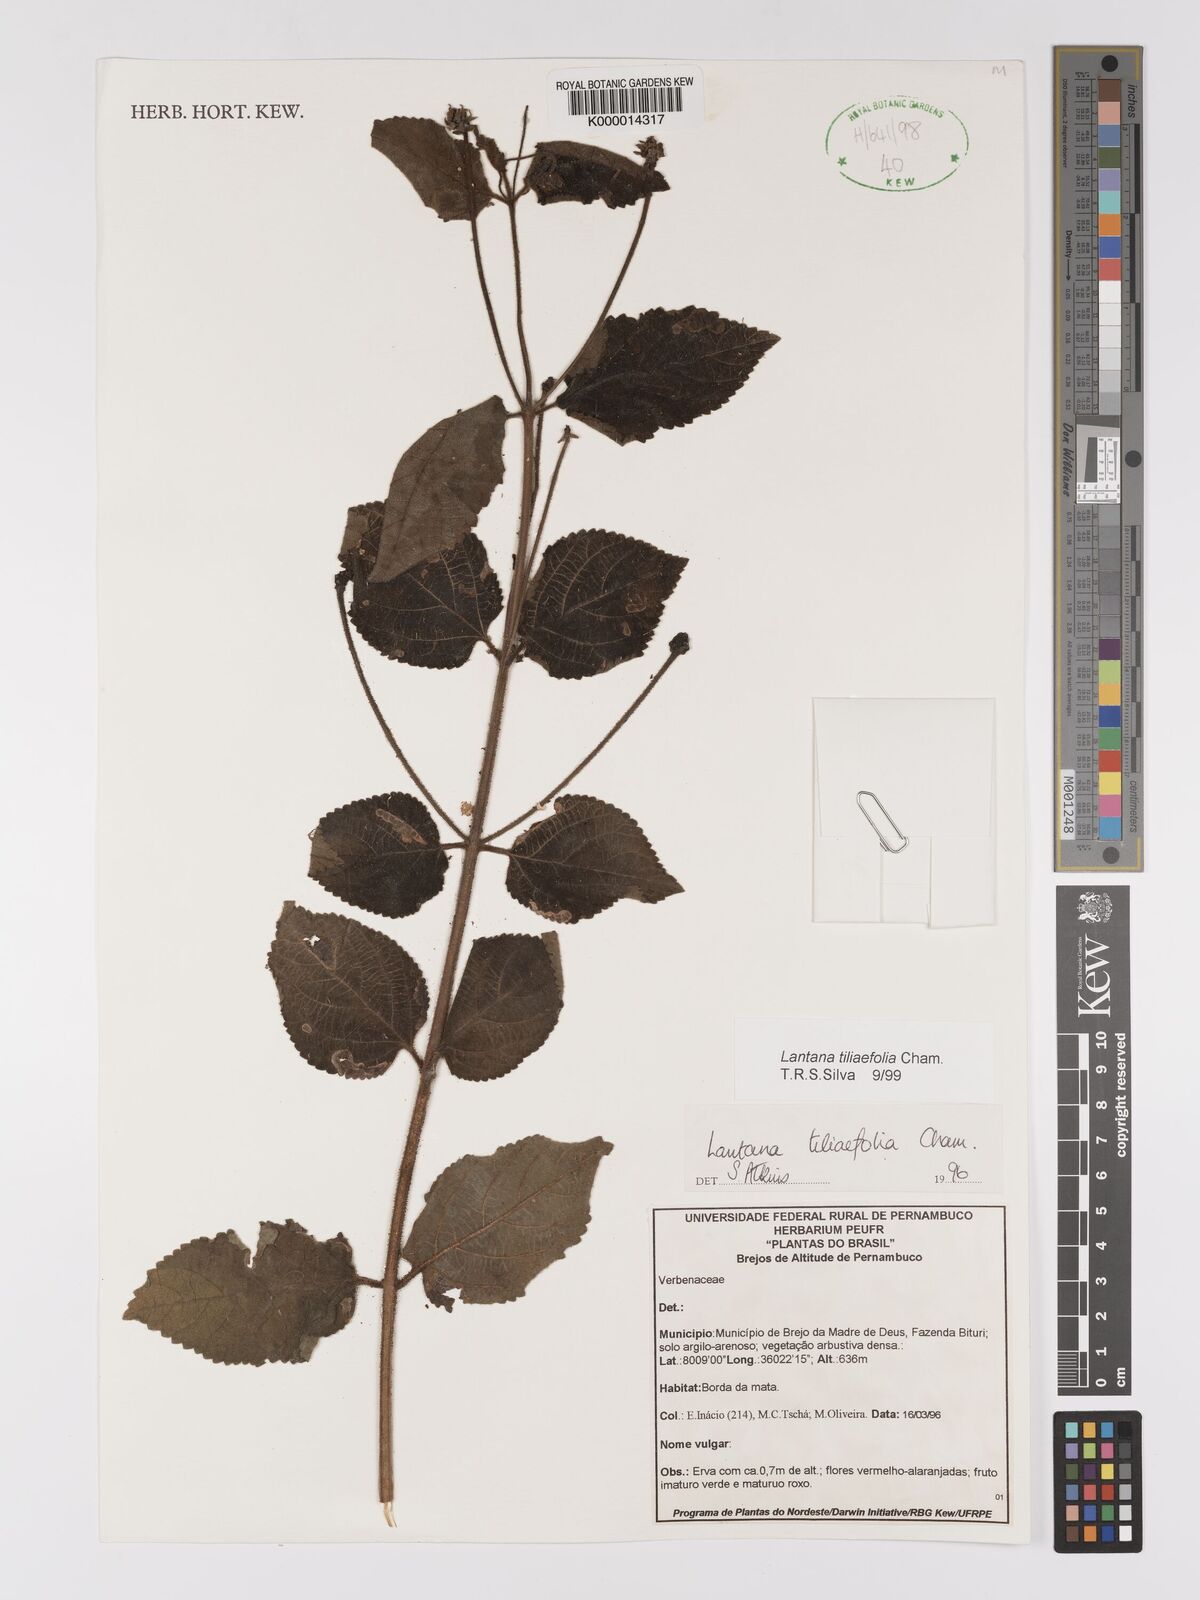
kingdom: Plantae
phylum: Tracheophyta
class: Magnoliopsida
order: Lamiales
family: Verbenaceae
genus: Lantana
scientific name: Lantana
